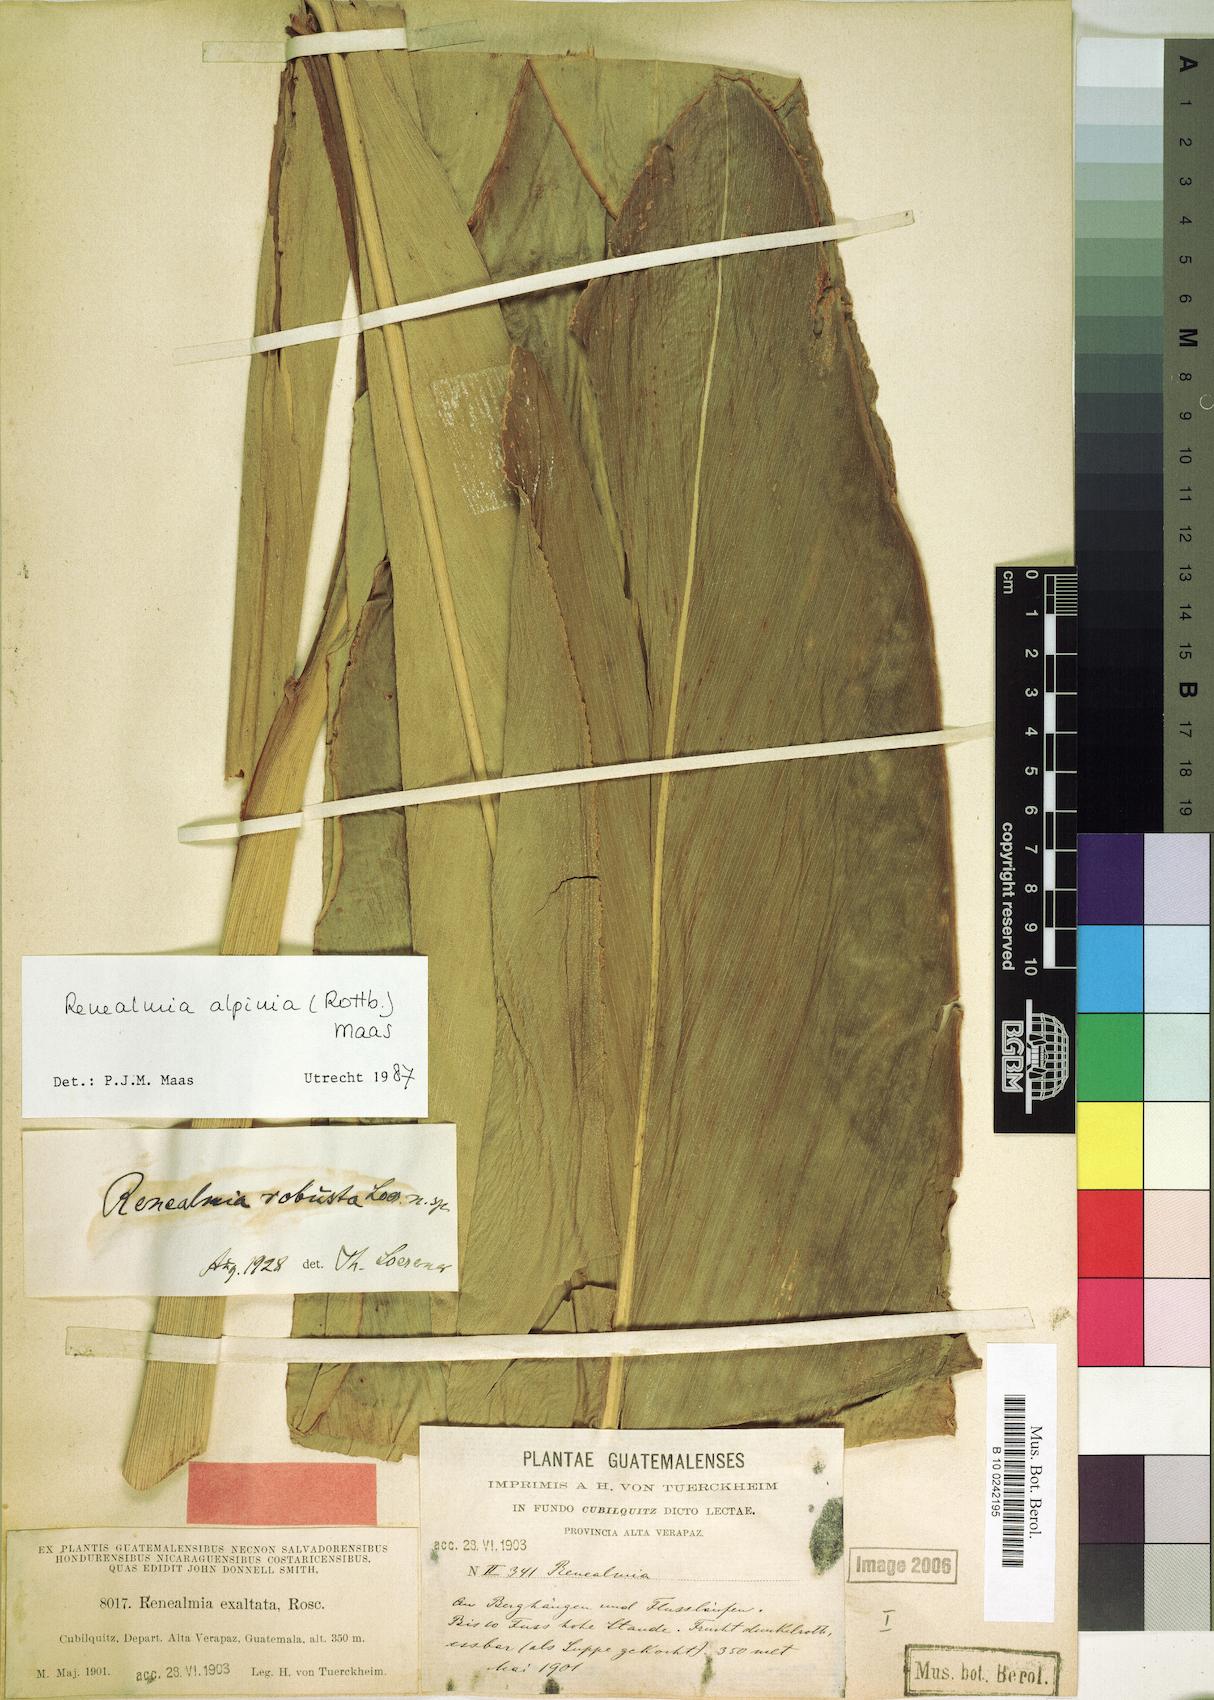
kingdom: Plantae
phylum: Tracheophyta
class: Liliopsida
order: Zingiberales
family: Zingiberaceae
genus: Renealmia
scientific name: Renealmia alpinia
